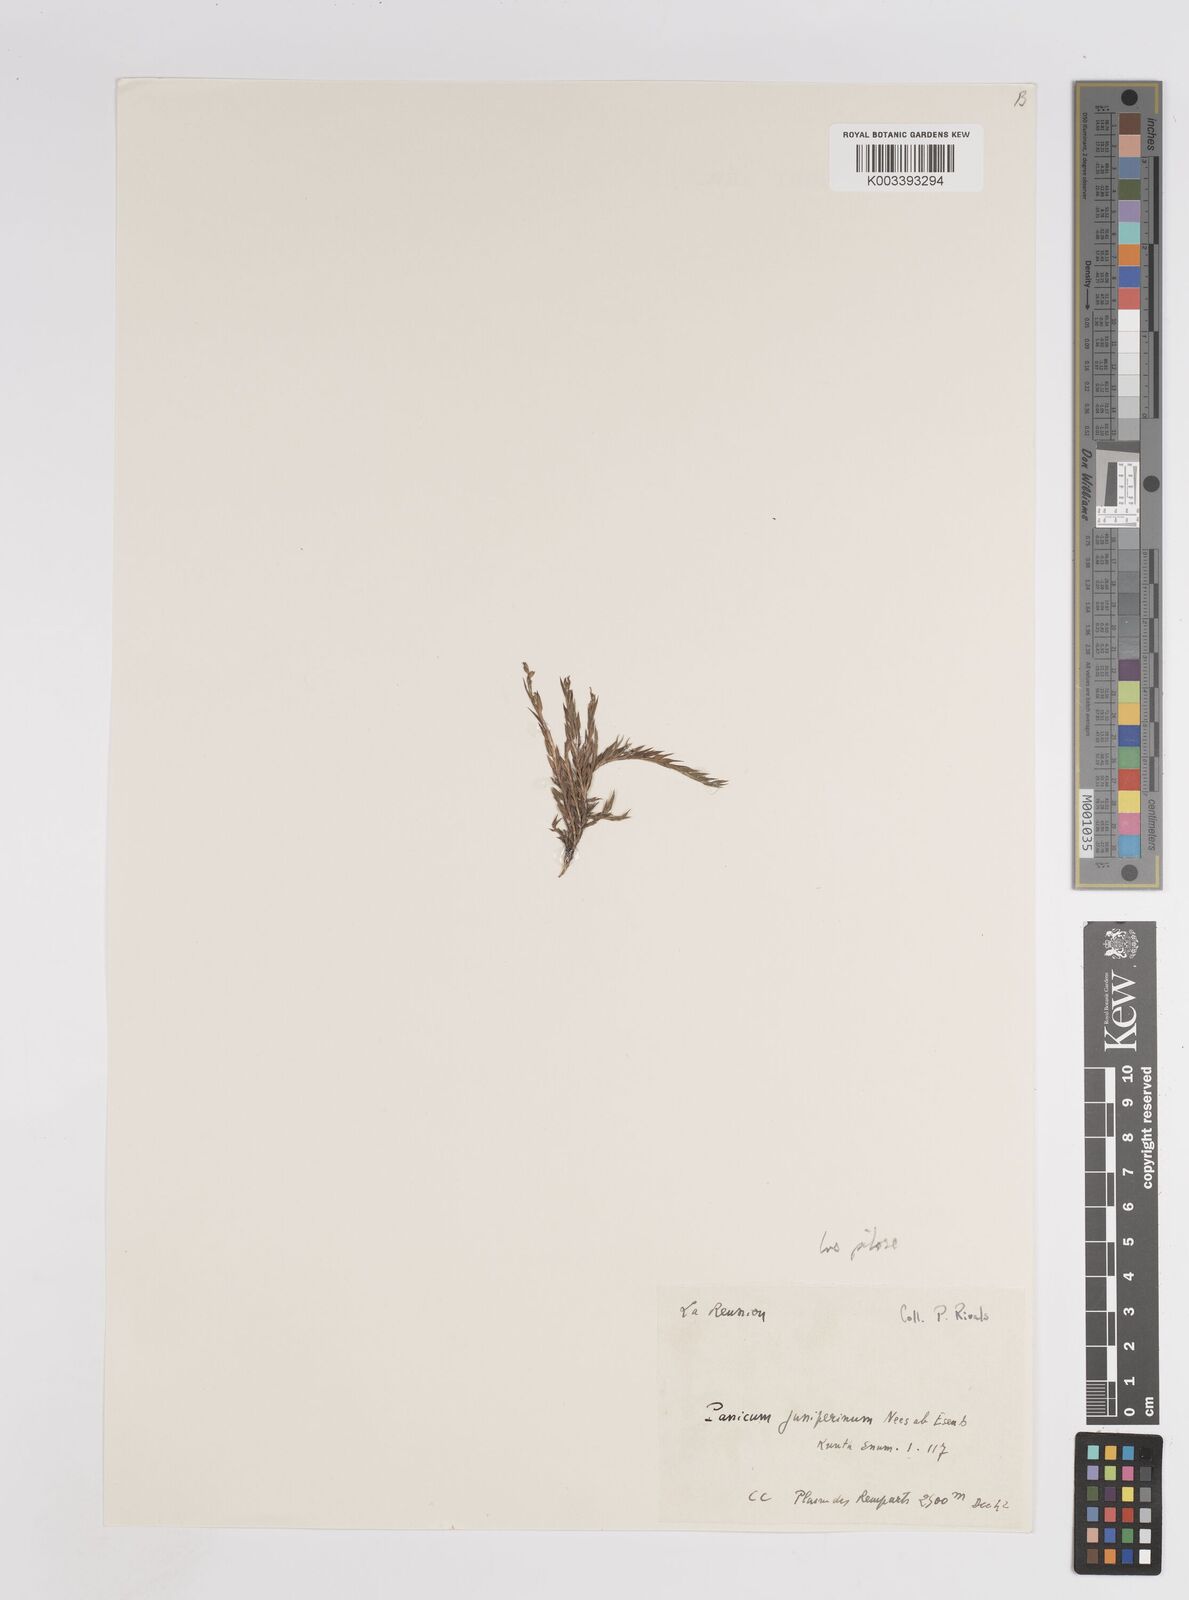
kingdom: Plantae
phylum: Tracheophyta
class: Liliopsida
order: Poales
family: Poaceae
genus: Panicum
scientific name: Panicum lycopodioides
